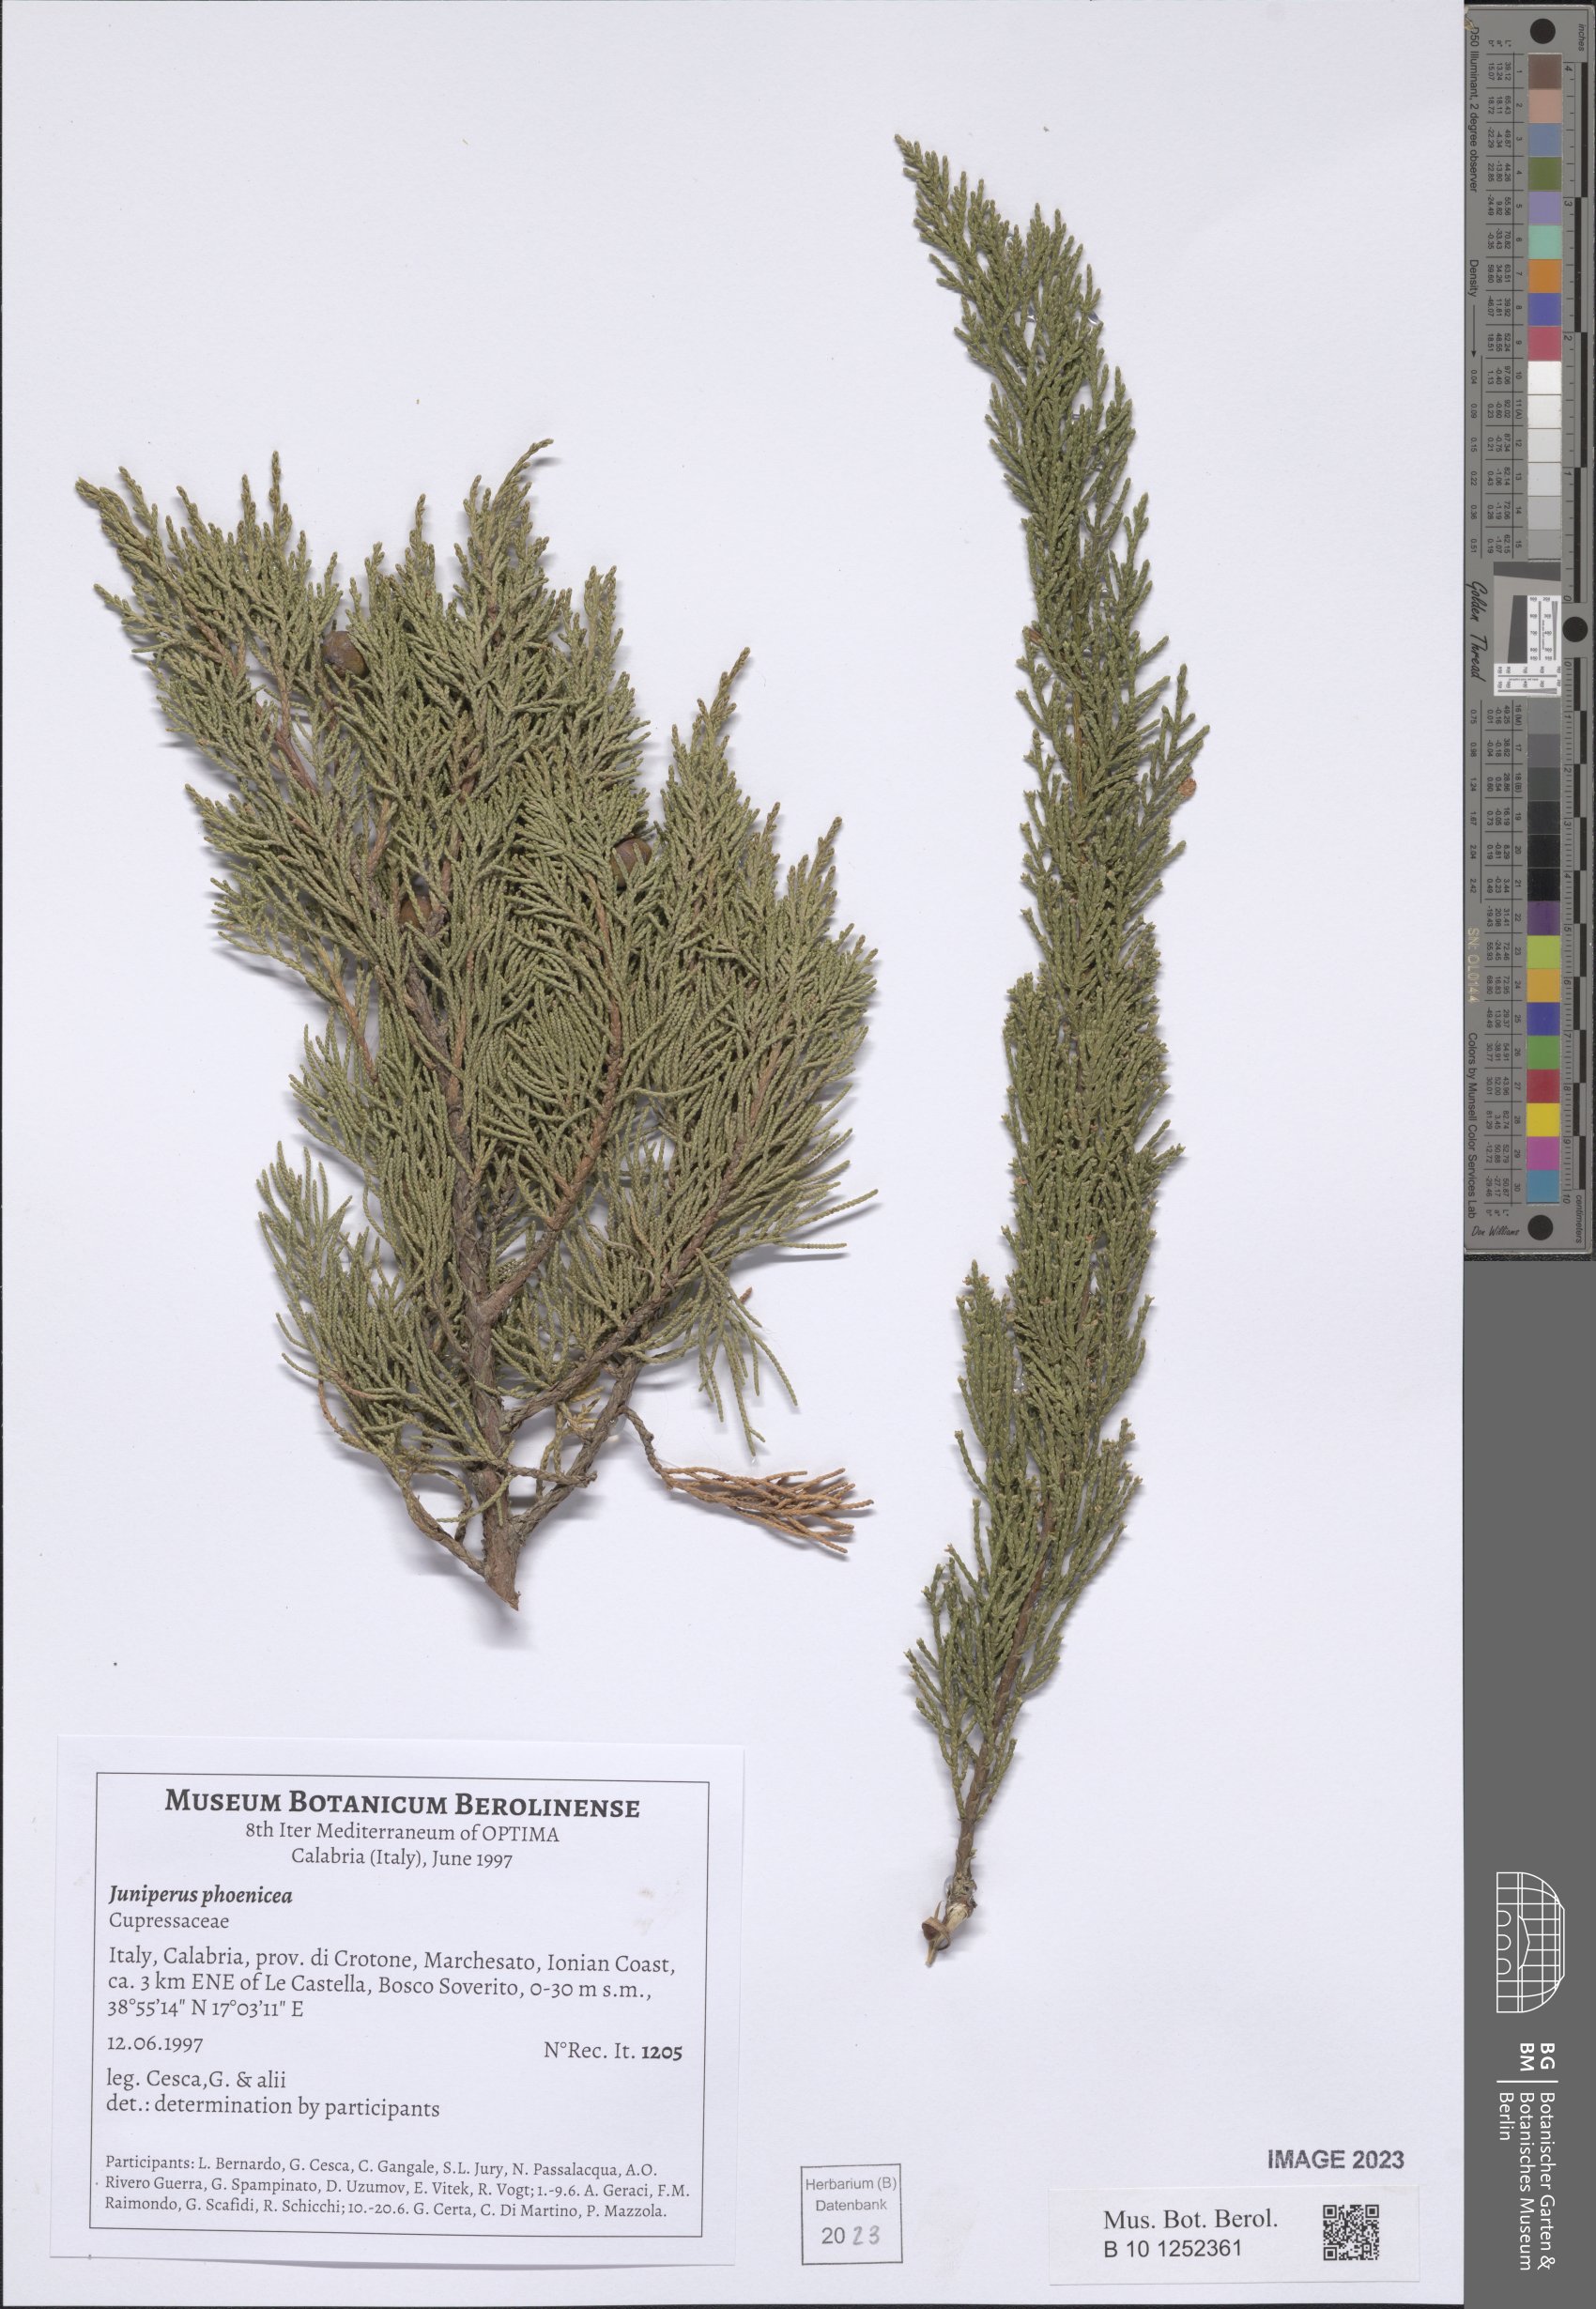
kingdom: Plantae
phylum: Tracheophyta
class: Pinopsida
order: Pinales
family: Cupressaceae
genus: Juniperus
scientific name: Juniperus phoenicea
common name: Phoenician juniper
